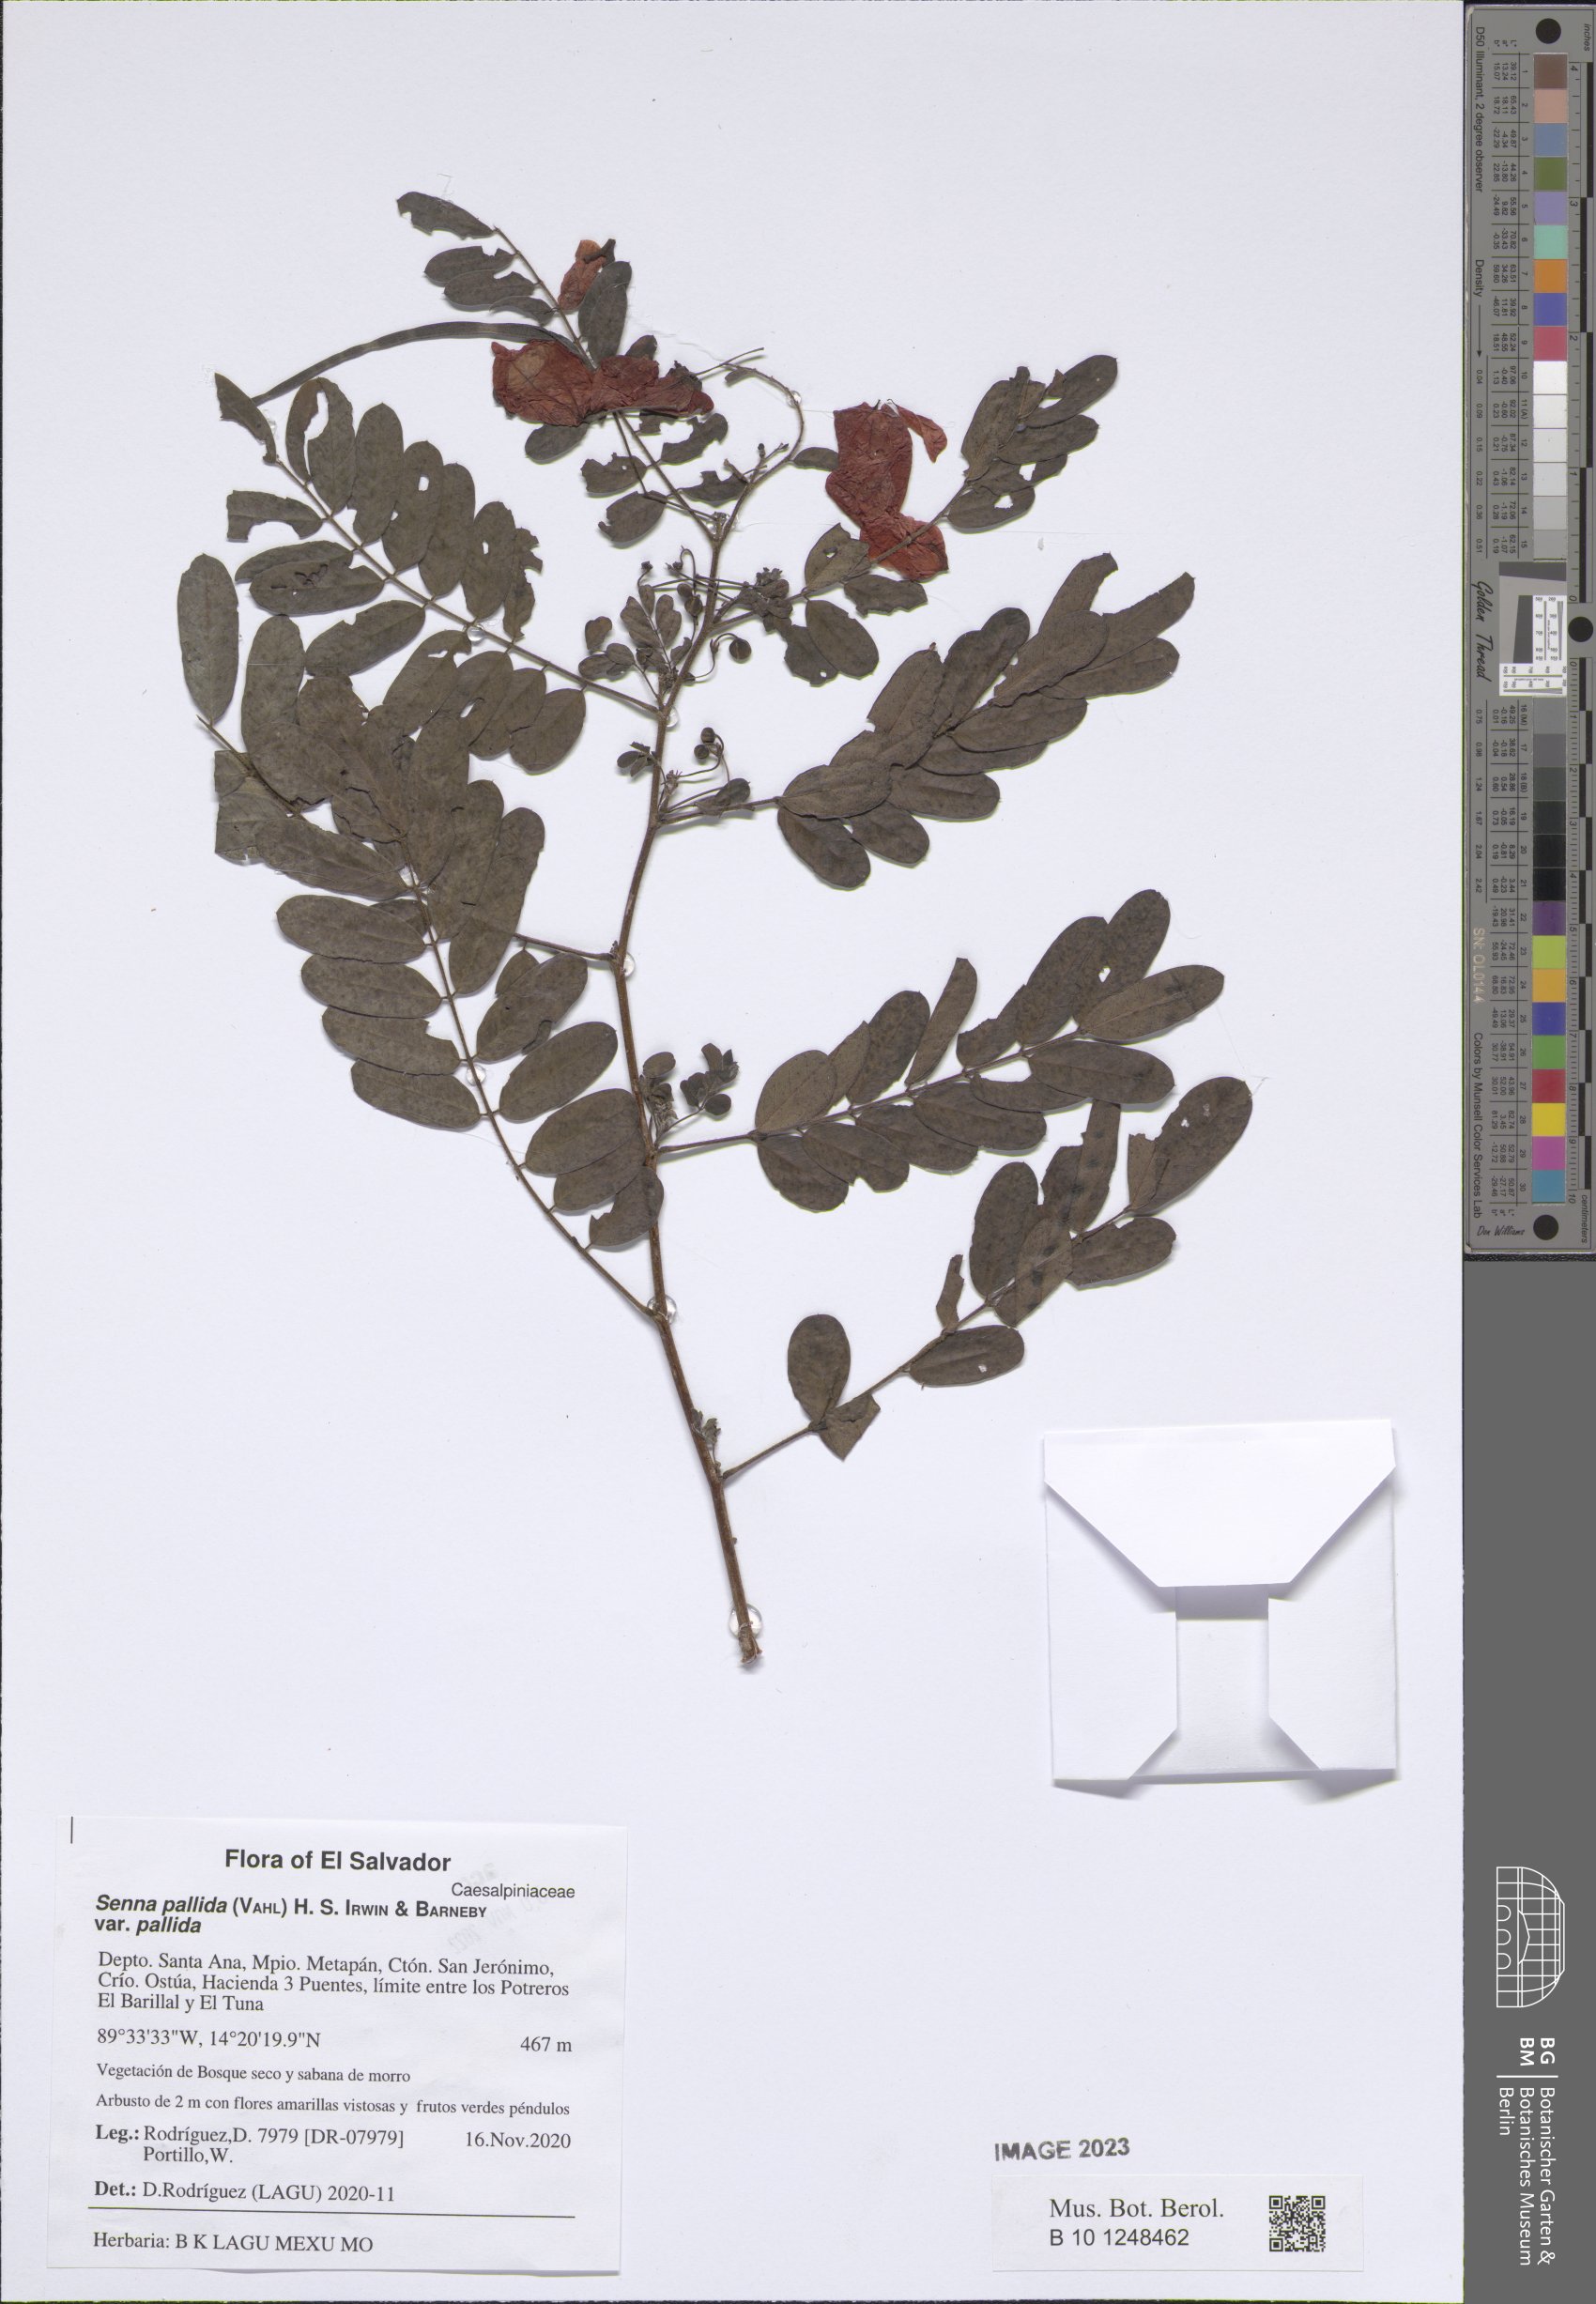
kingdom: Plantae
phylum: Tracheophyta
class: Magnoliopsida
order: Fabales
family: Fabaceae
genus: Senna
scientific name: Senna pallida
